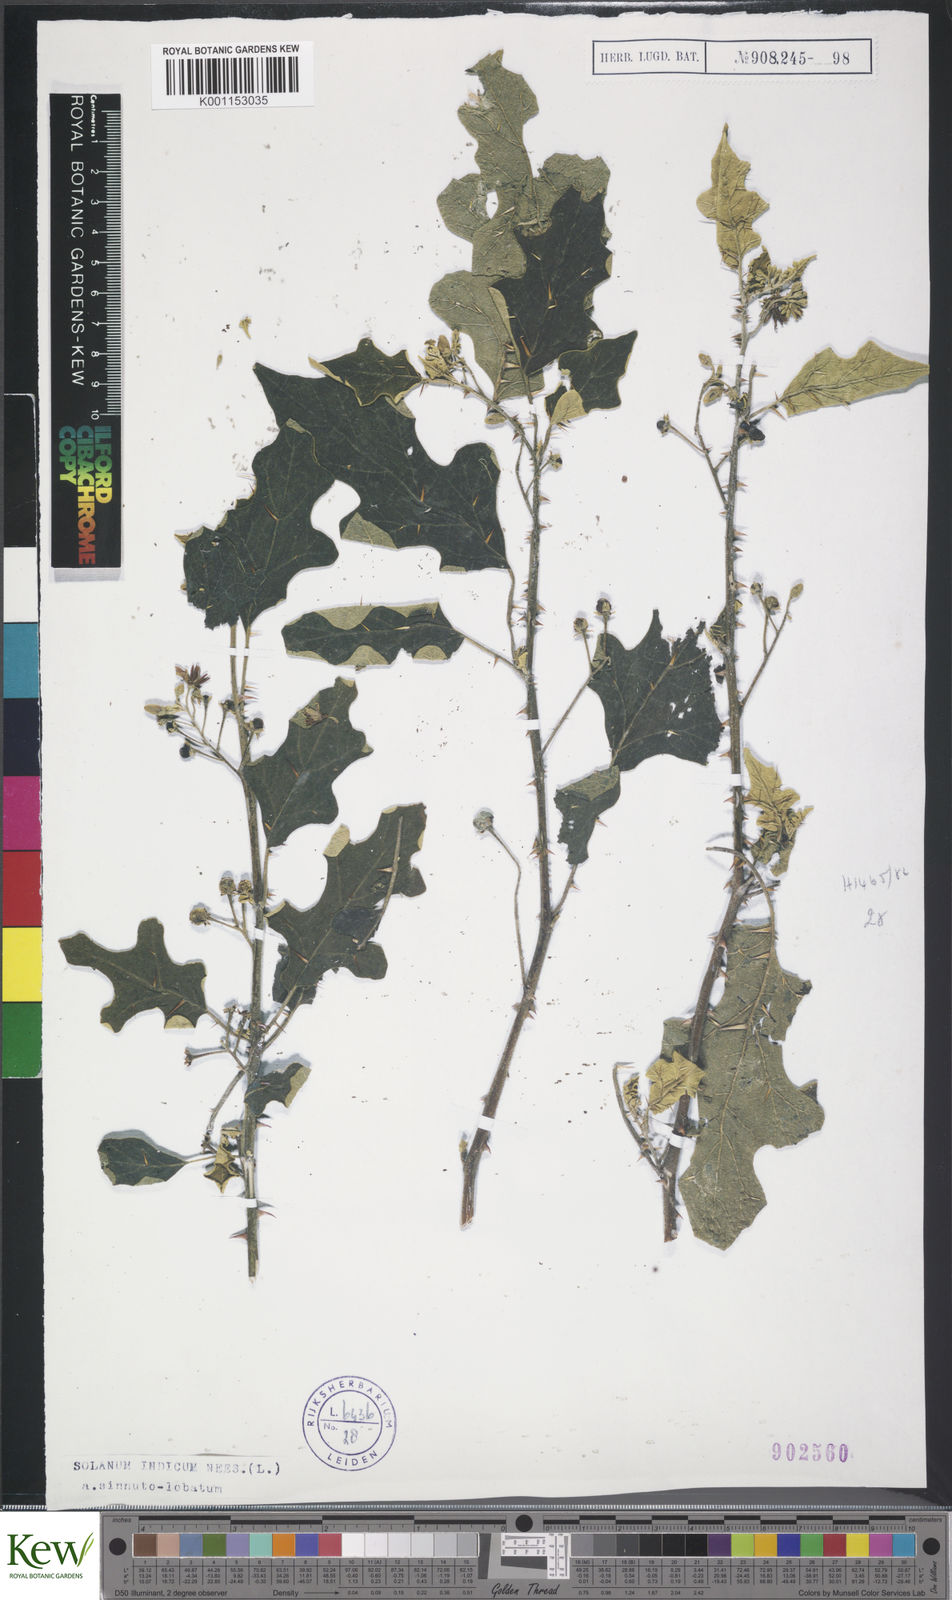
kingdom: Plantae
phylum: Tracheophyta
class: Magnoliopsida
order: Solanales
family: Solanaceae
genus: Solanum
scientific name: Solanum violaceum
